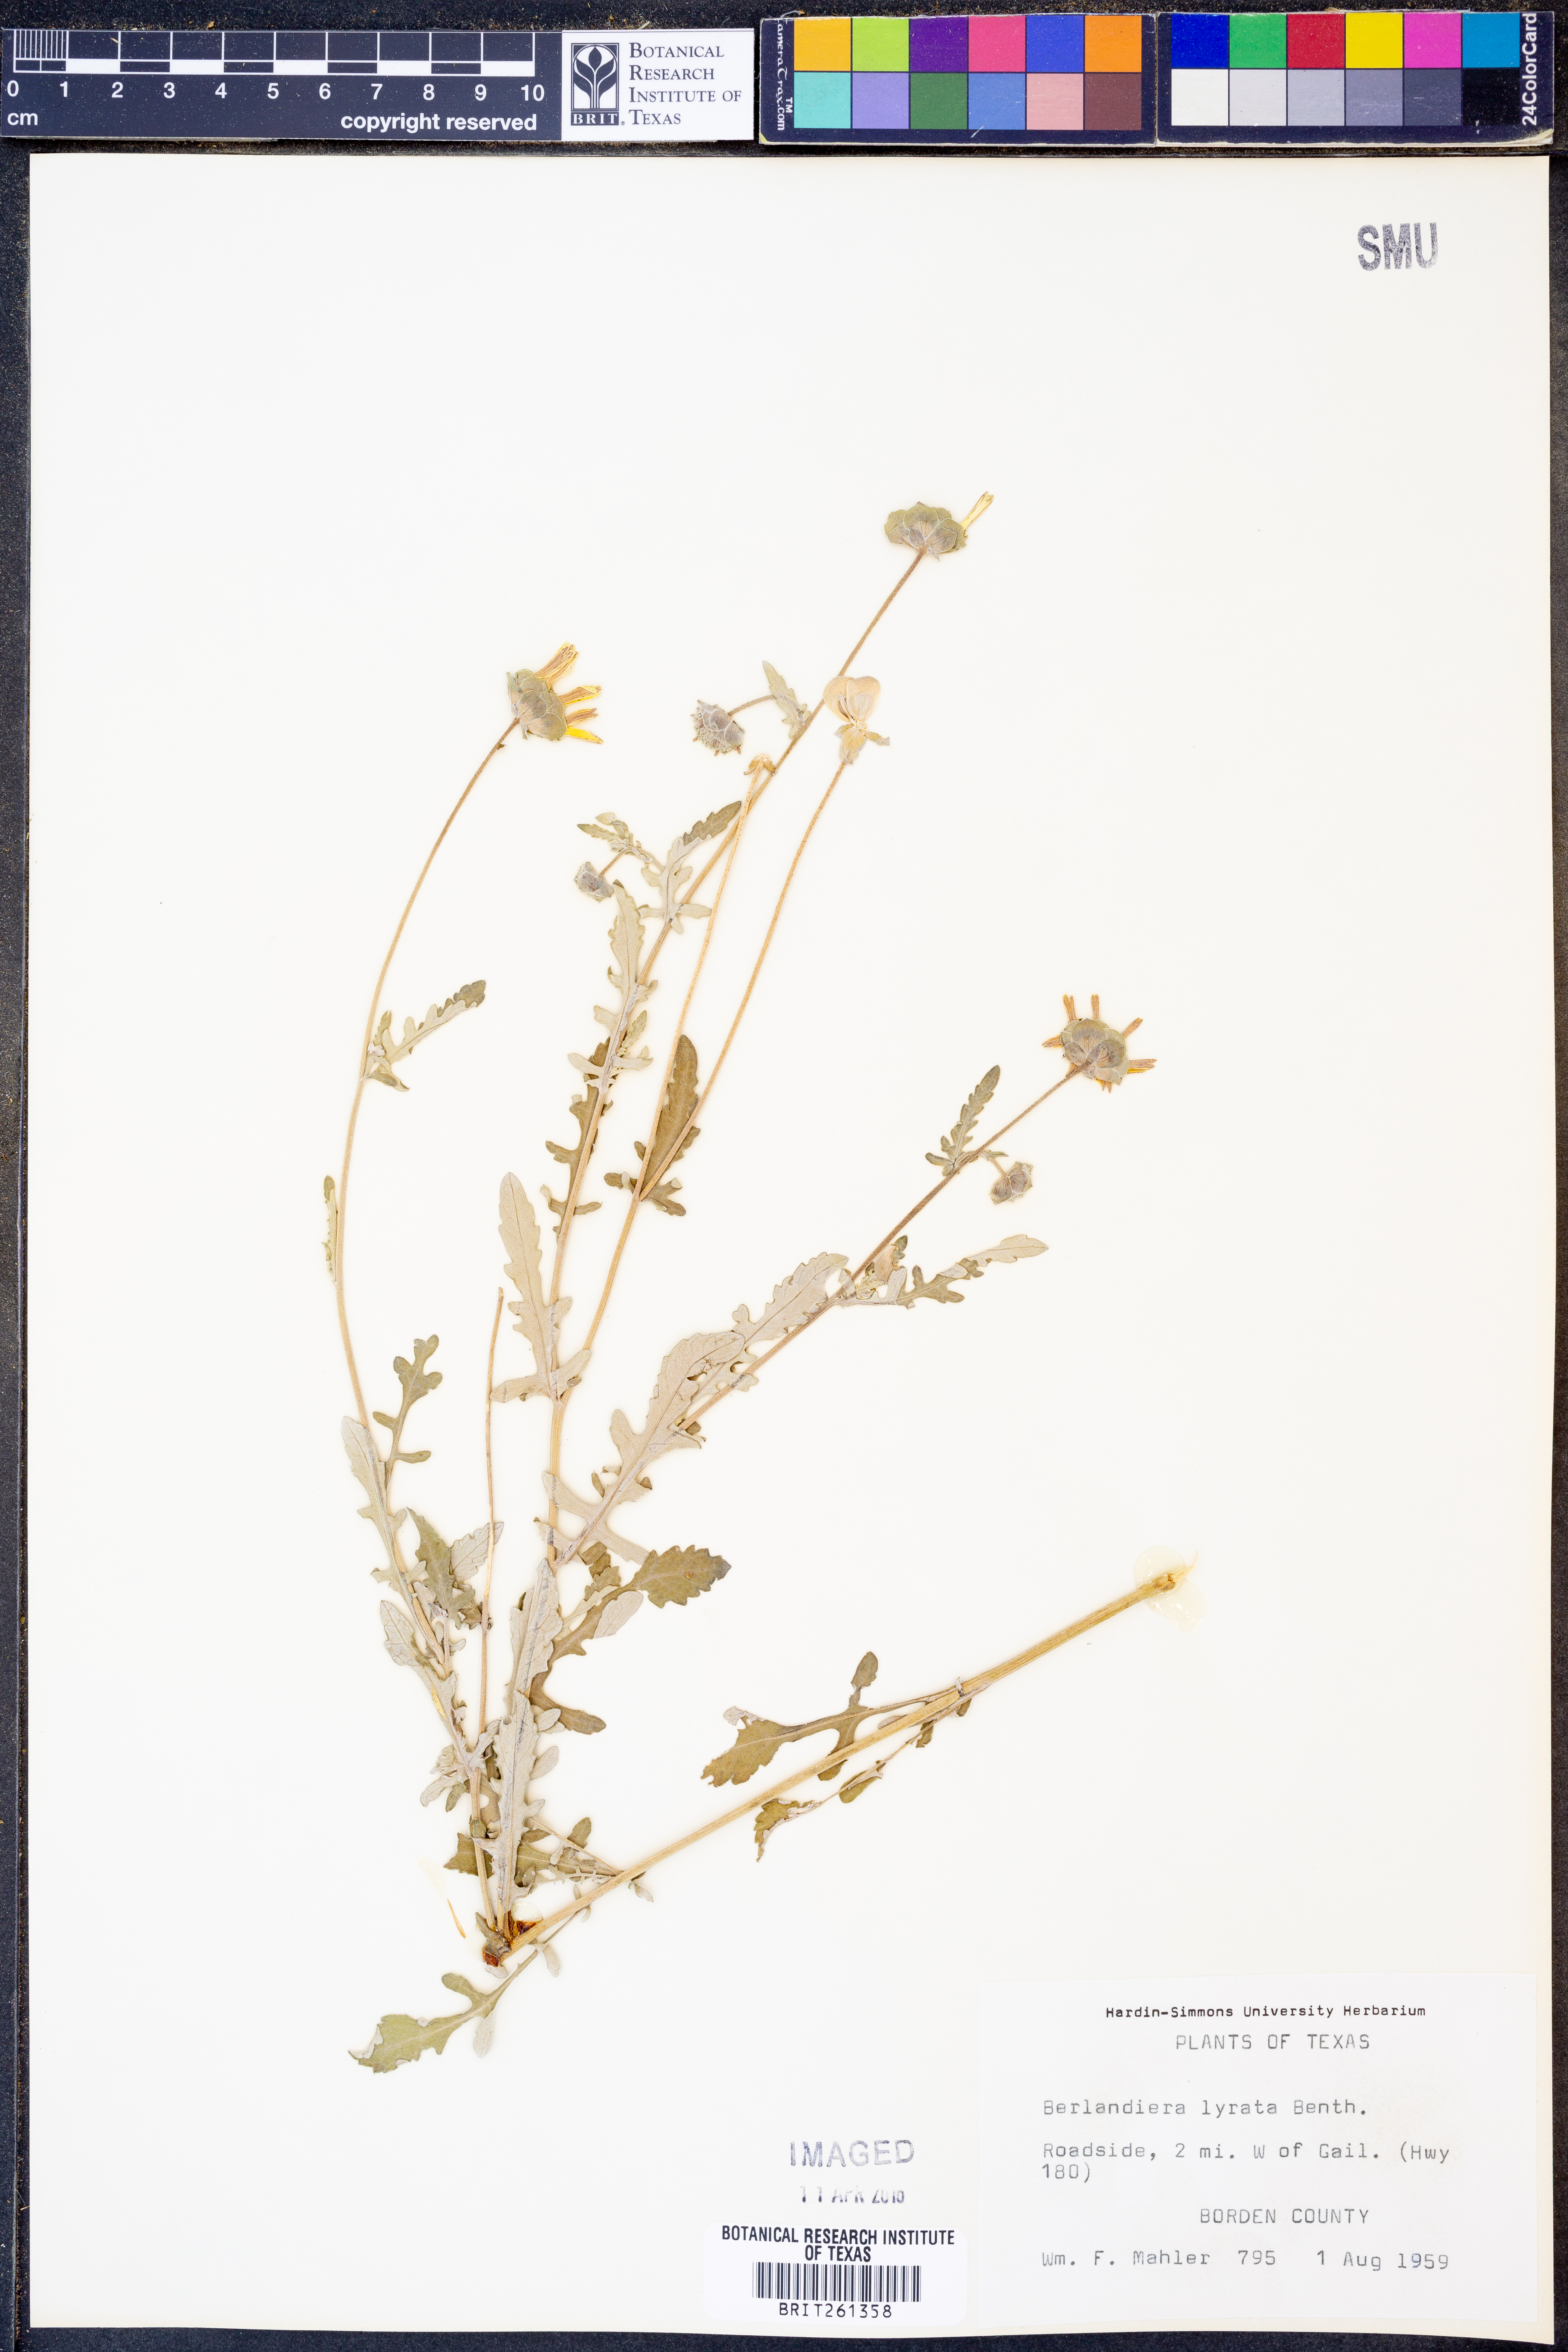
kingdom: Plantae
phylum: Tracheophyta
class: Magnoliopsida
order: Asterales
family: Asteraceae
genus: Berlandiera
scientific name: Berlandiera lyrata
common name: Chocolate-flower
